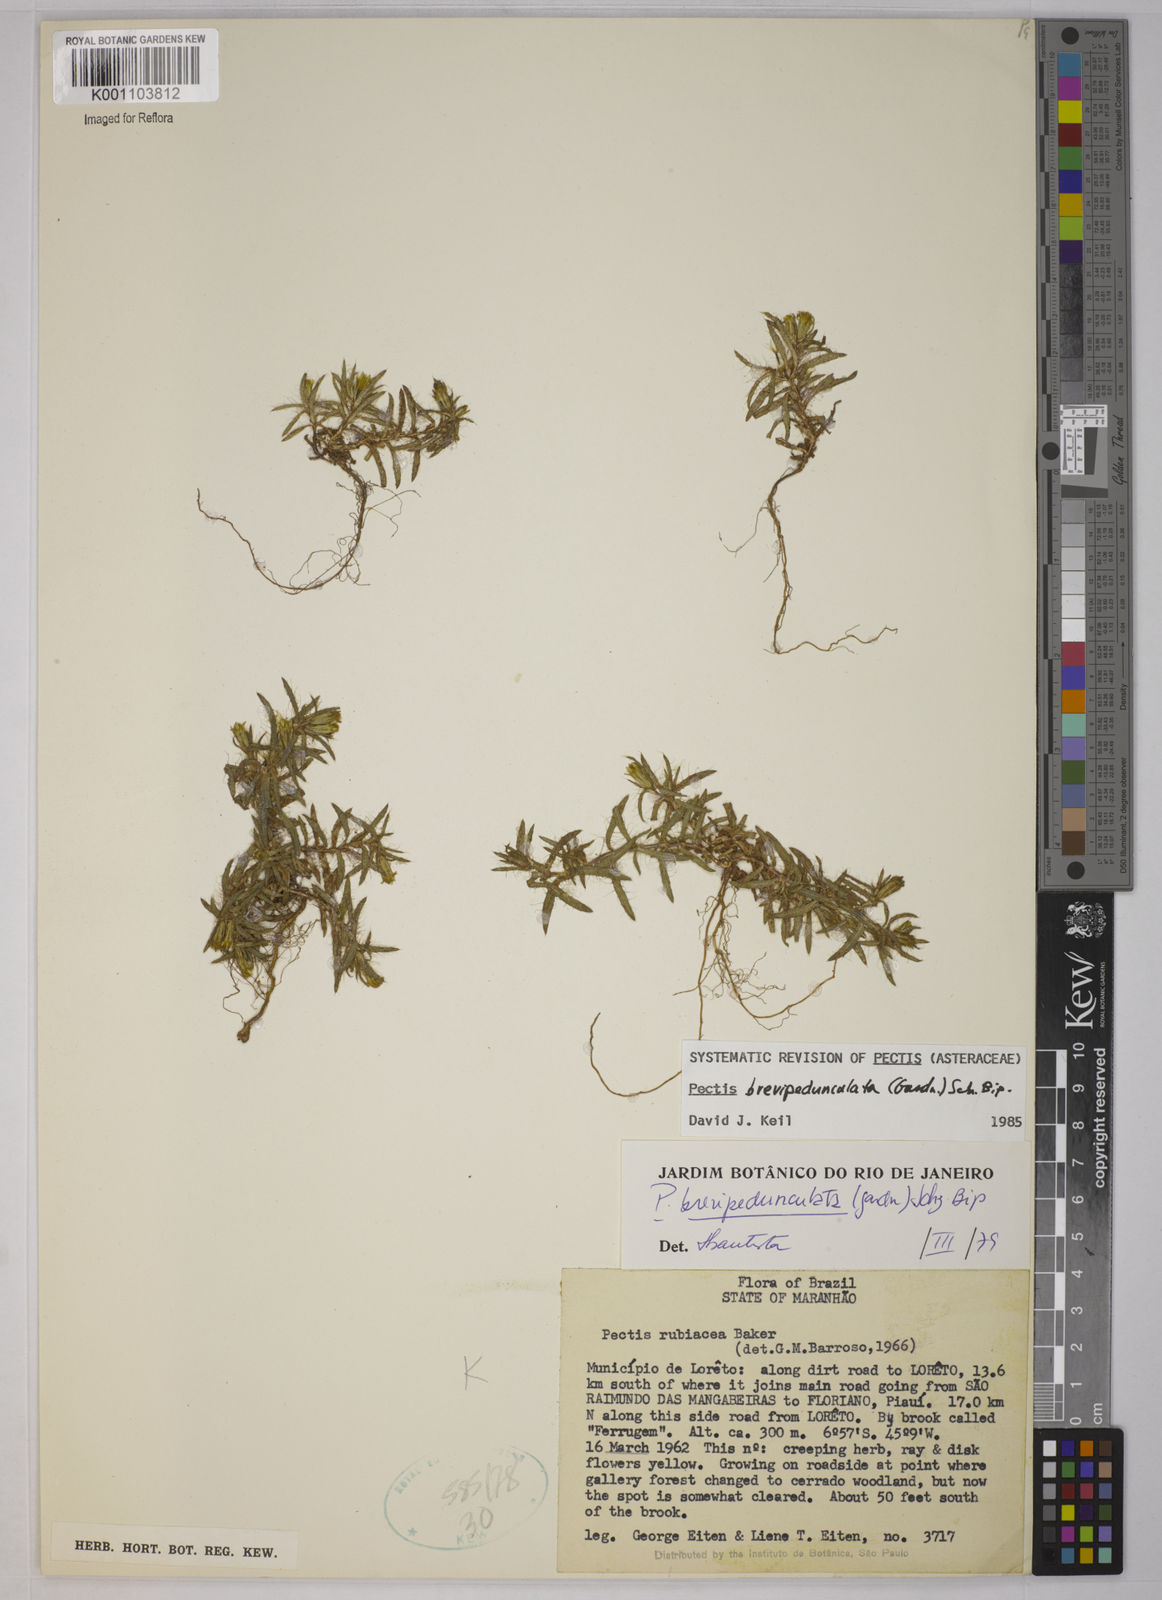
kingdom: Plantae
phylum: Tracheophyta
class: Magnoliopsida
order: Asterales
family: Asteraceae
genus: Pectis
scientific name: Pectis brevipedunculata
